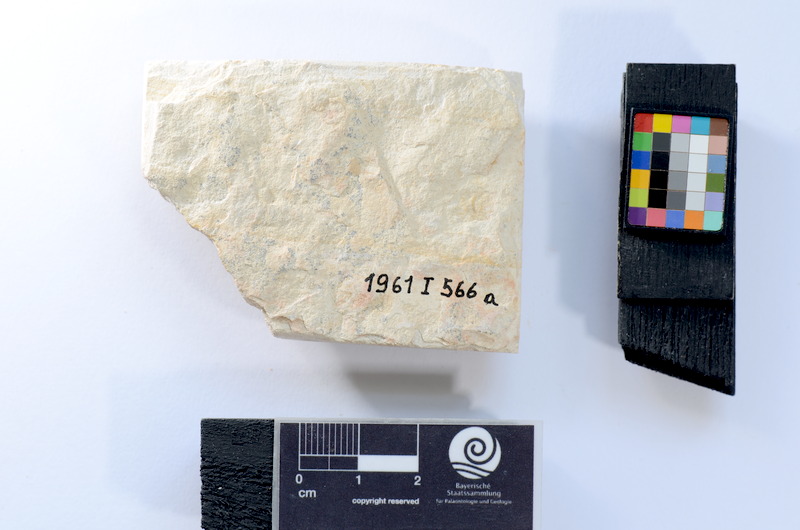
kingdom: Animalia
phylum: Chordata
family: Ascalaboidae
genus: Tharsis
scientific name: Tharsis dubius
